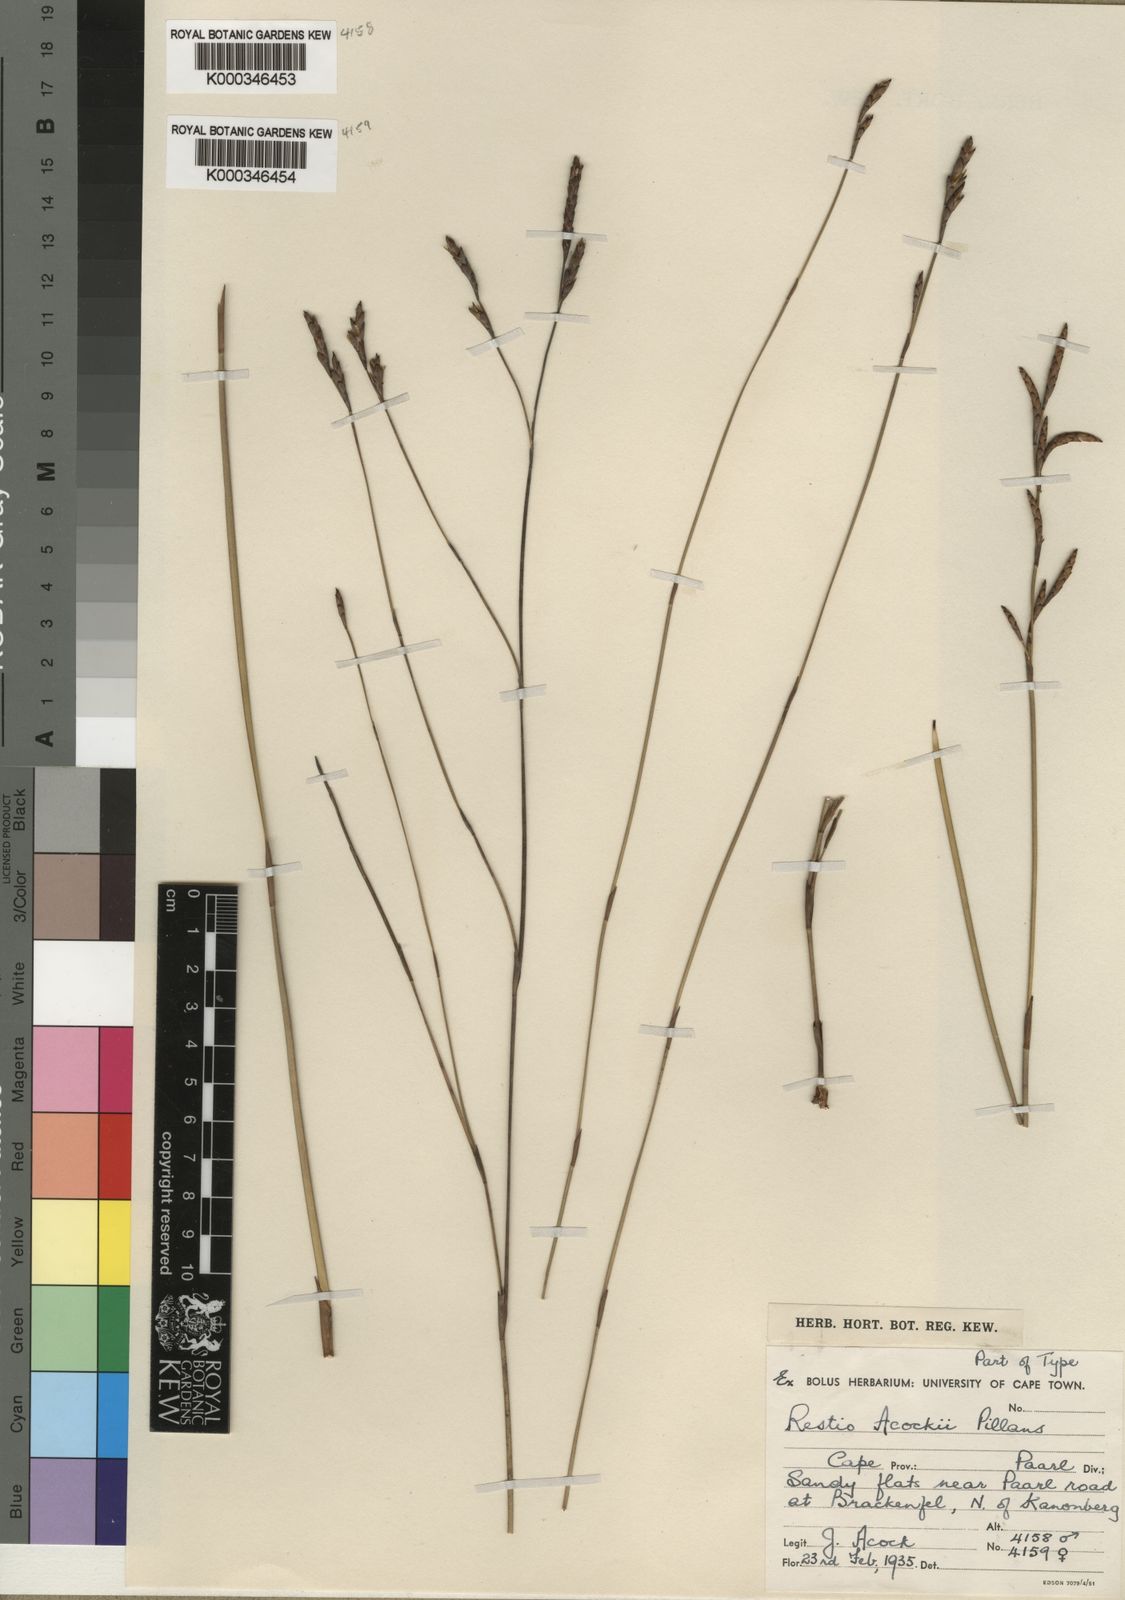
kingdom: Plantae
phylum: Tracheophyta
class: Liliopsida
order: Poales
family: Restionaceae
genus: Restio
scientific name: Restio acockii
